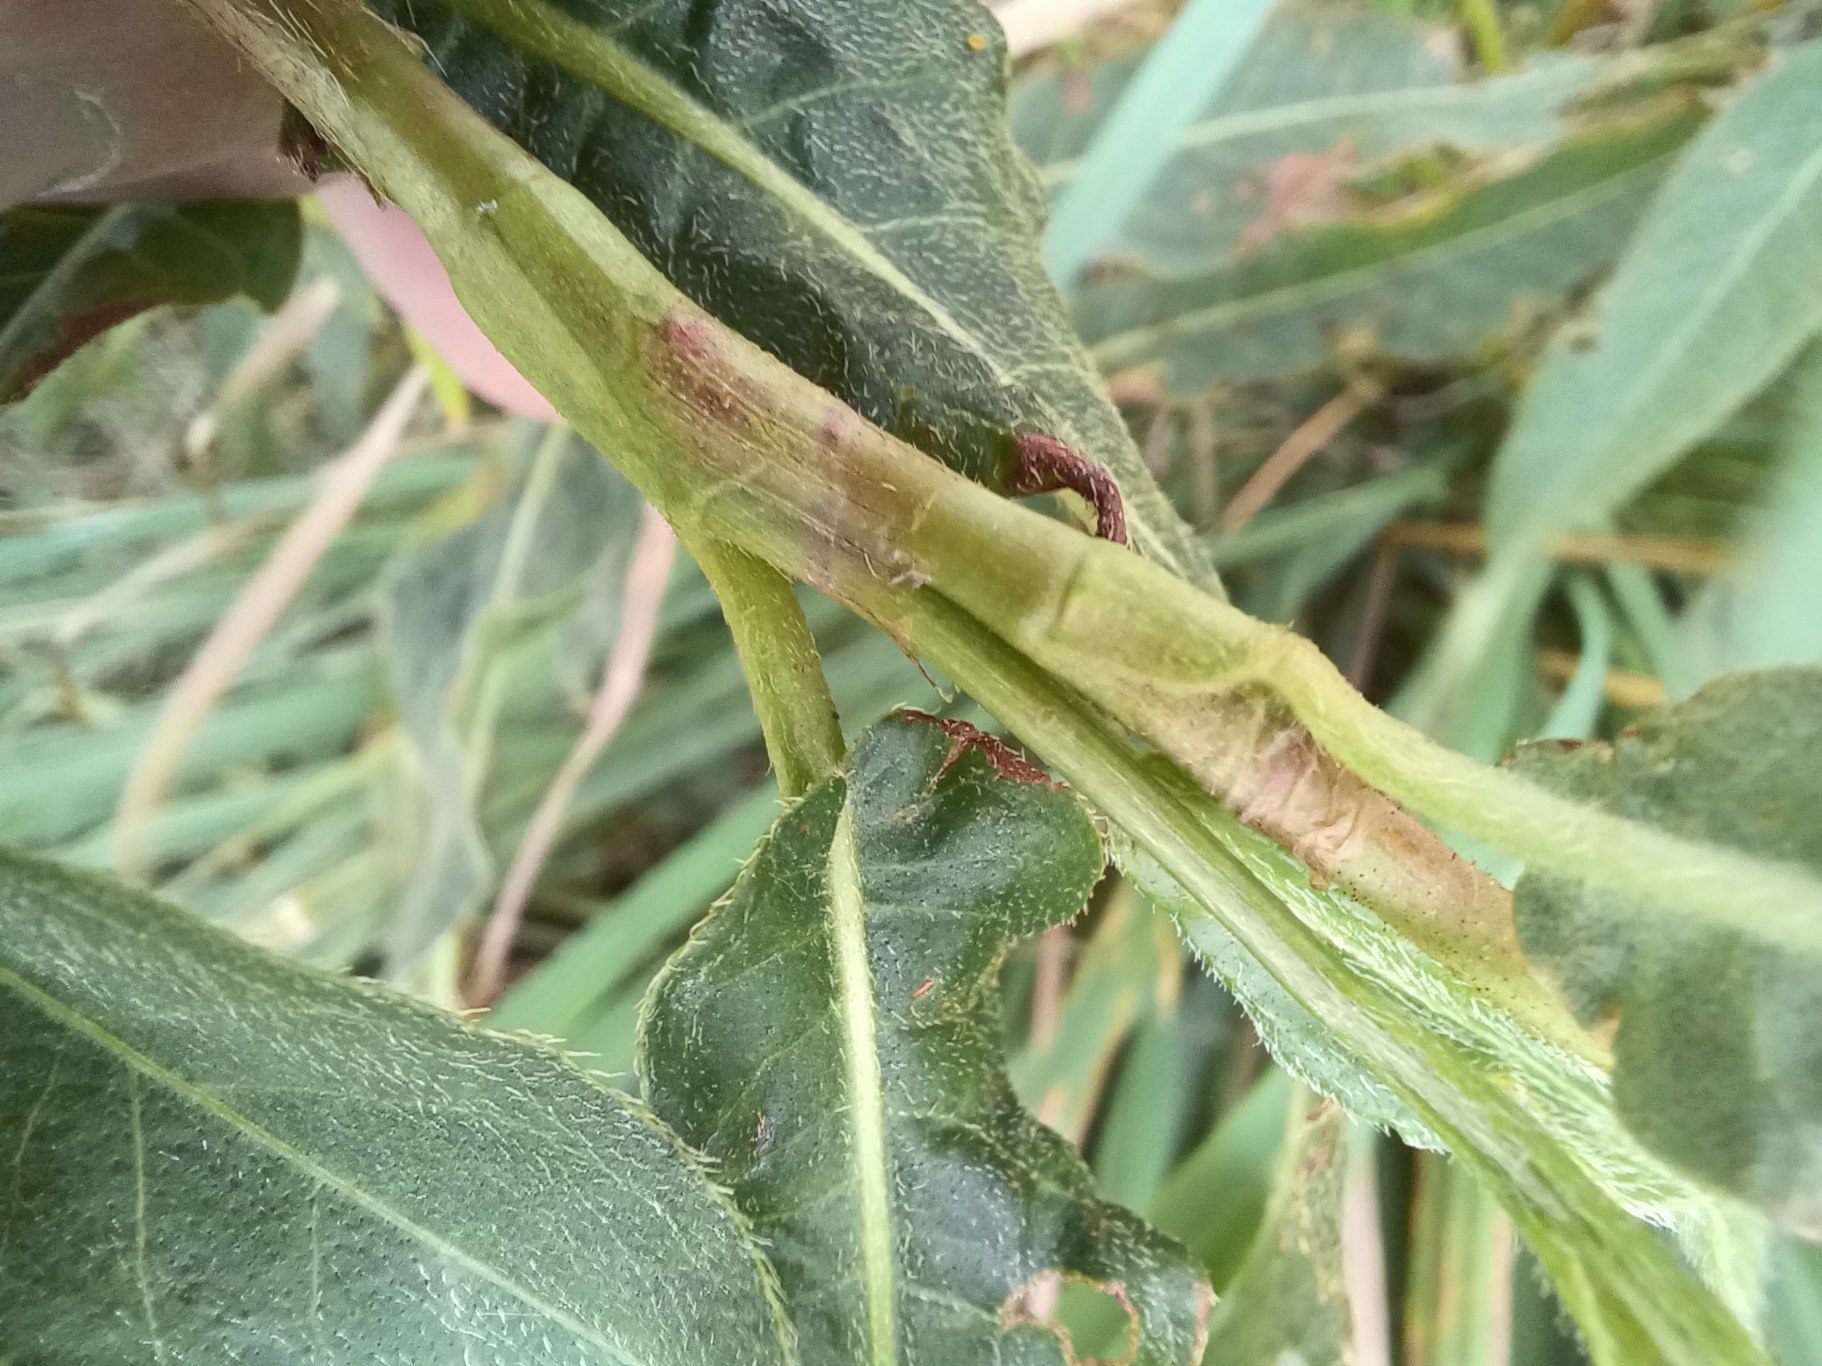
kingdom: Plantae
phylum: Tracheophyta
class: Magnoliopsida
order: Caryophyllales
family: Polygonaceae
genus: Persicaria
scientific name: Persicaria amphibia
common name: Vand-pileurt
